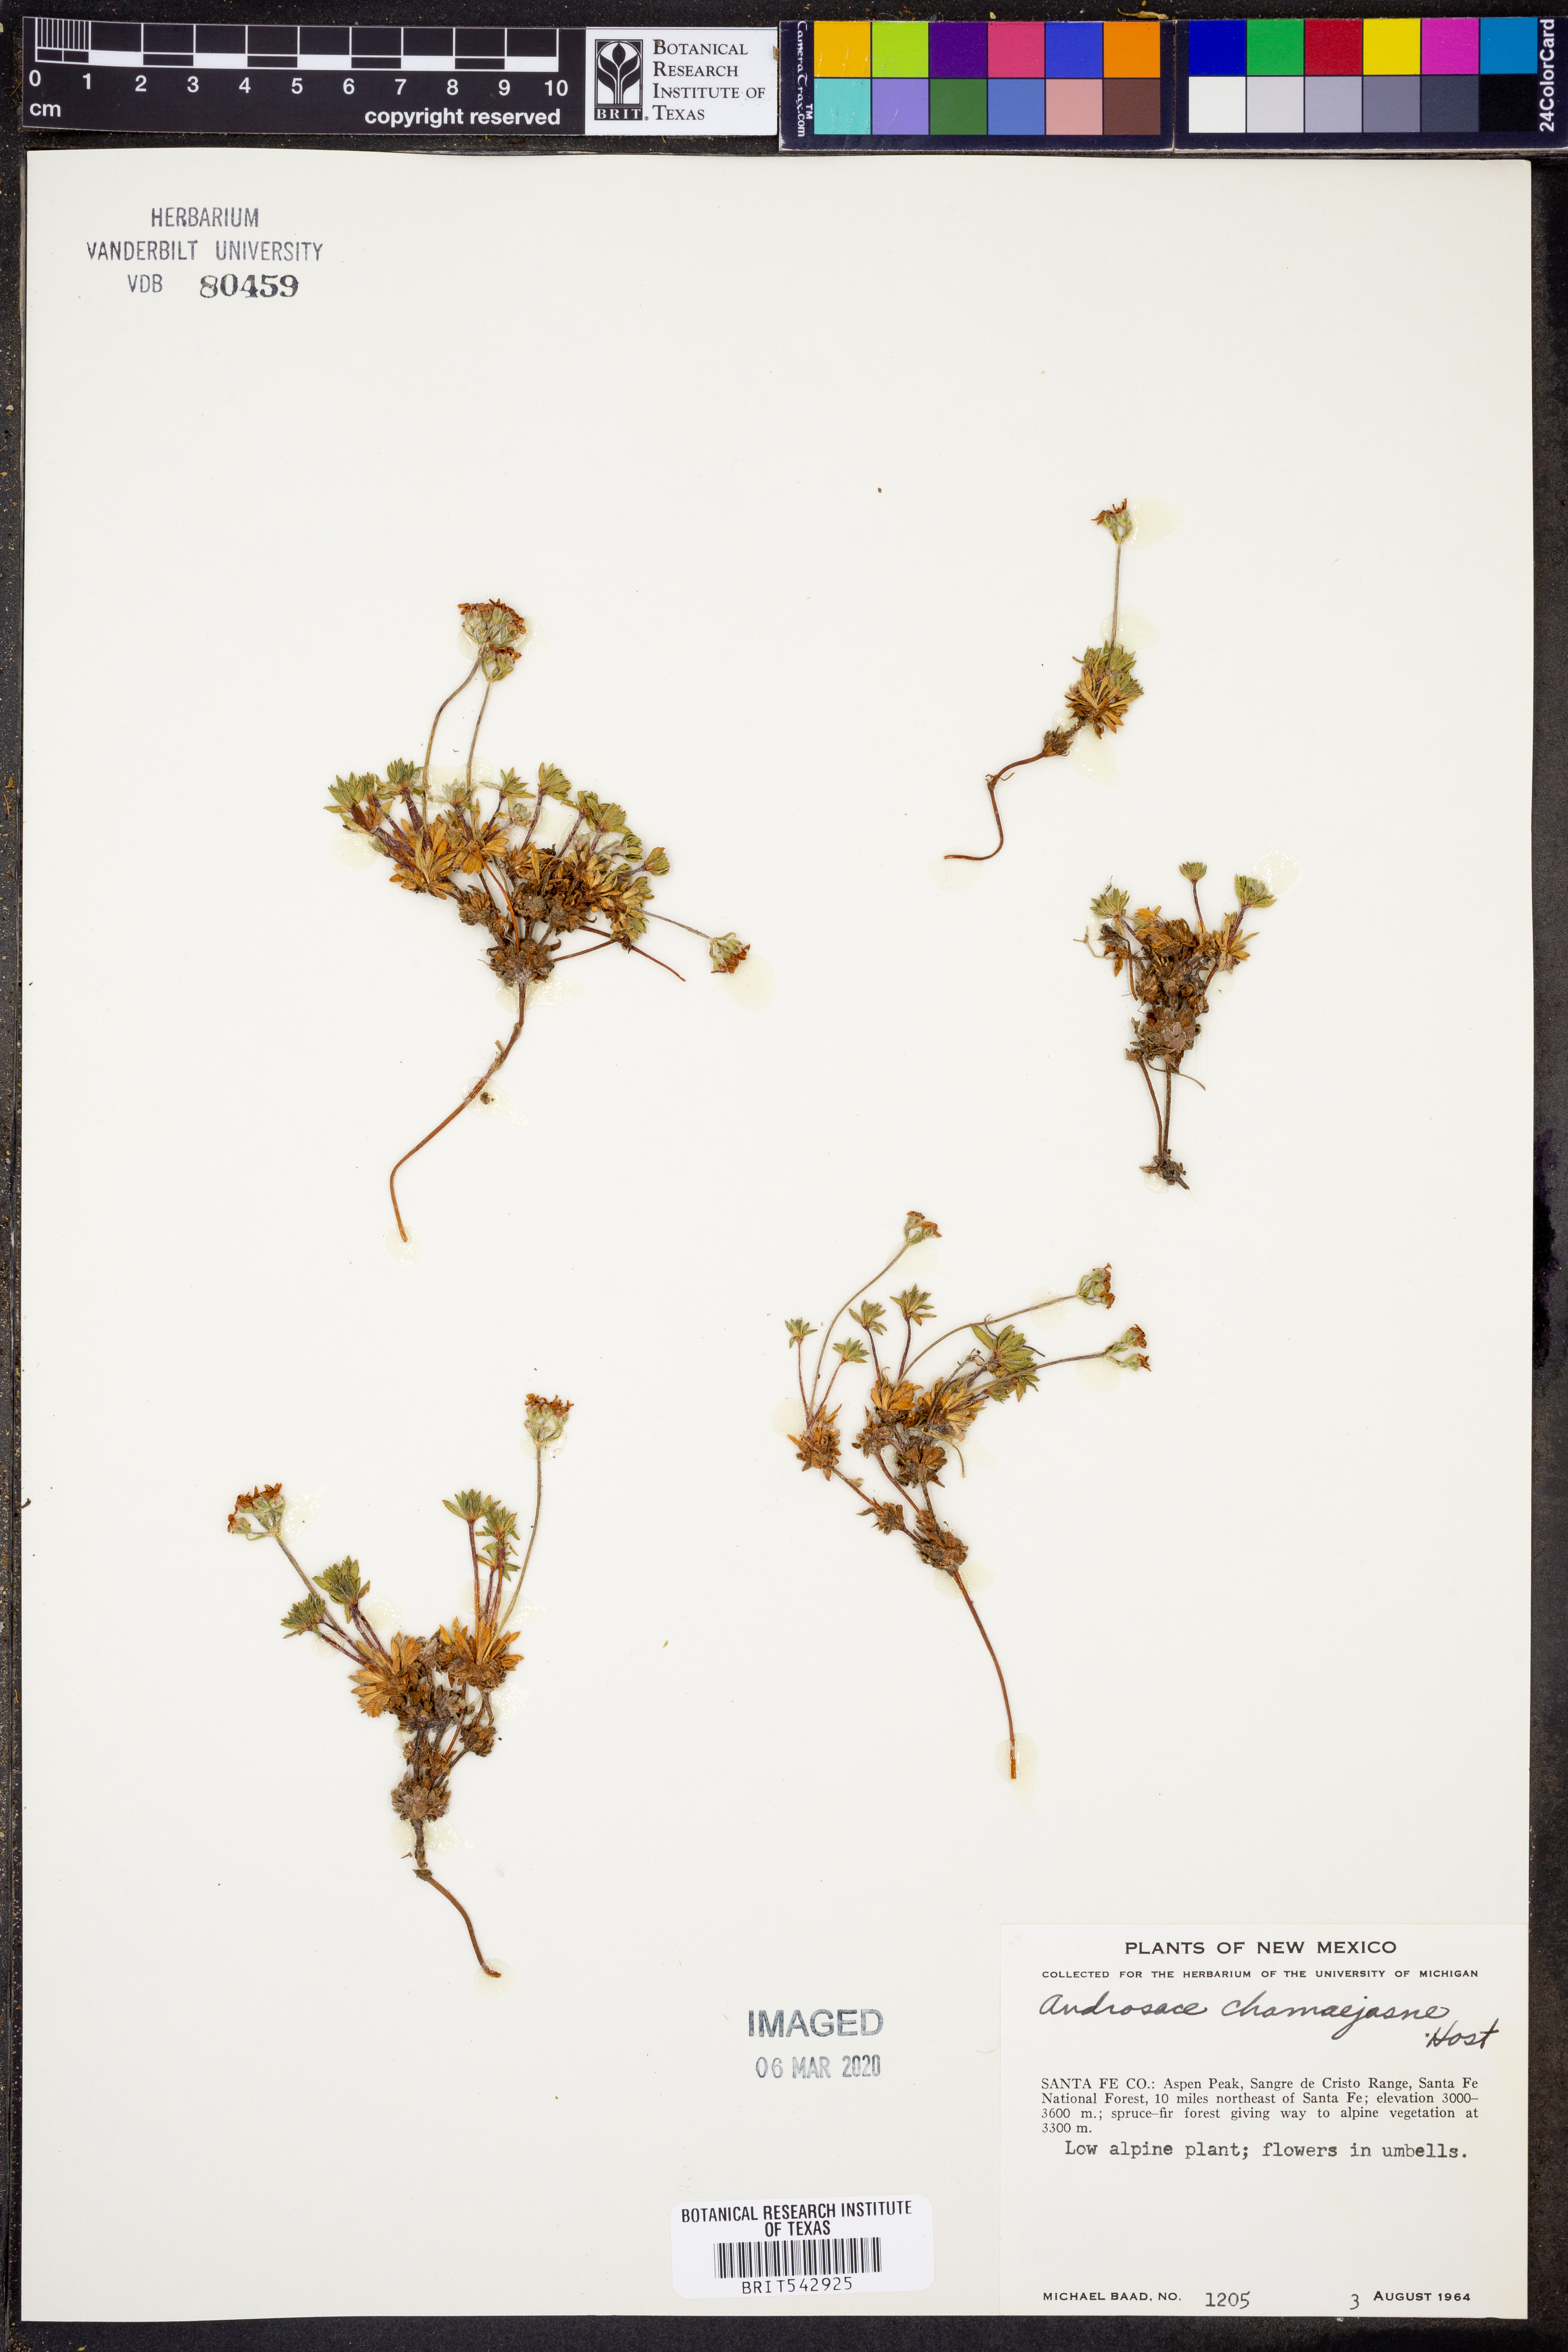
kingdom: Plantae
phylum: Tracheophyta
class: Magnoliopsida
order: Ericales
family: Primulaceae
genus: Androsace
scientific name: Androsace obtusifolia
